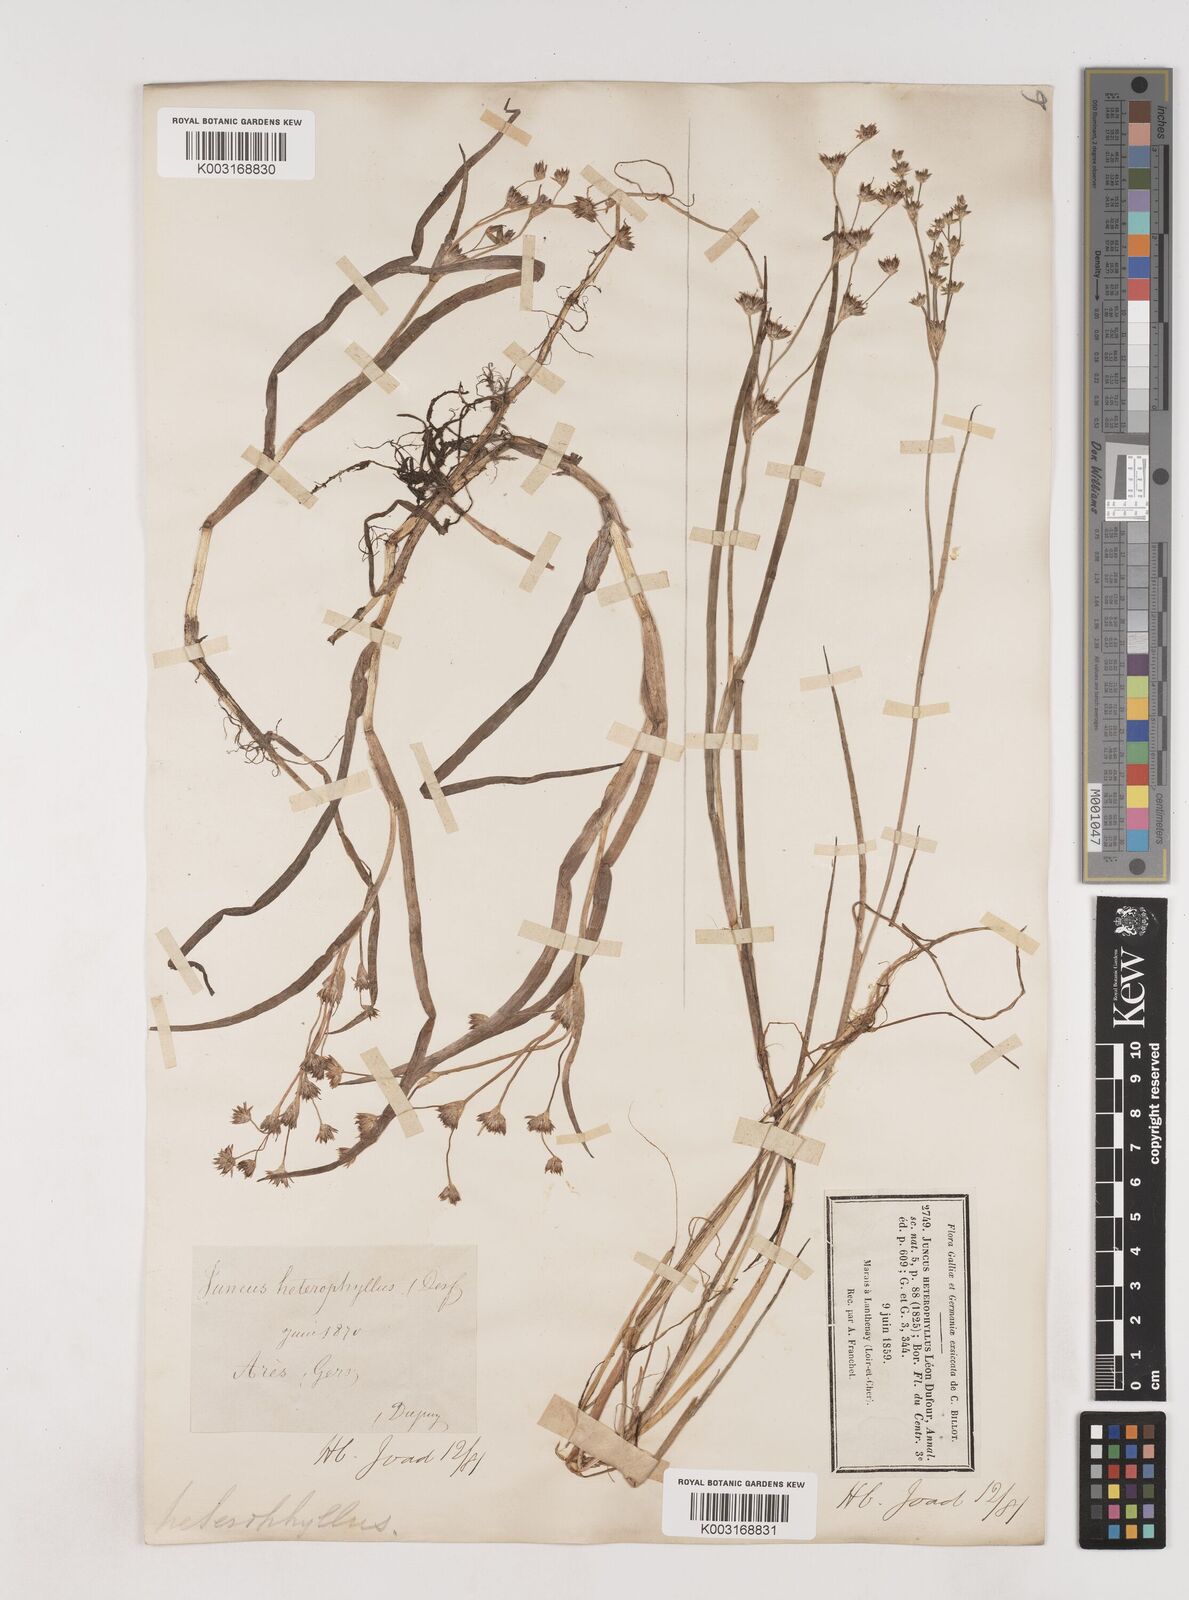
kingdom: Plantae
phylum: Tracheophyta
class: Liliopsida
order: Poales
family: Juncaceae
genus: Juncus
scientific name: Juncus heterophyllus
